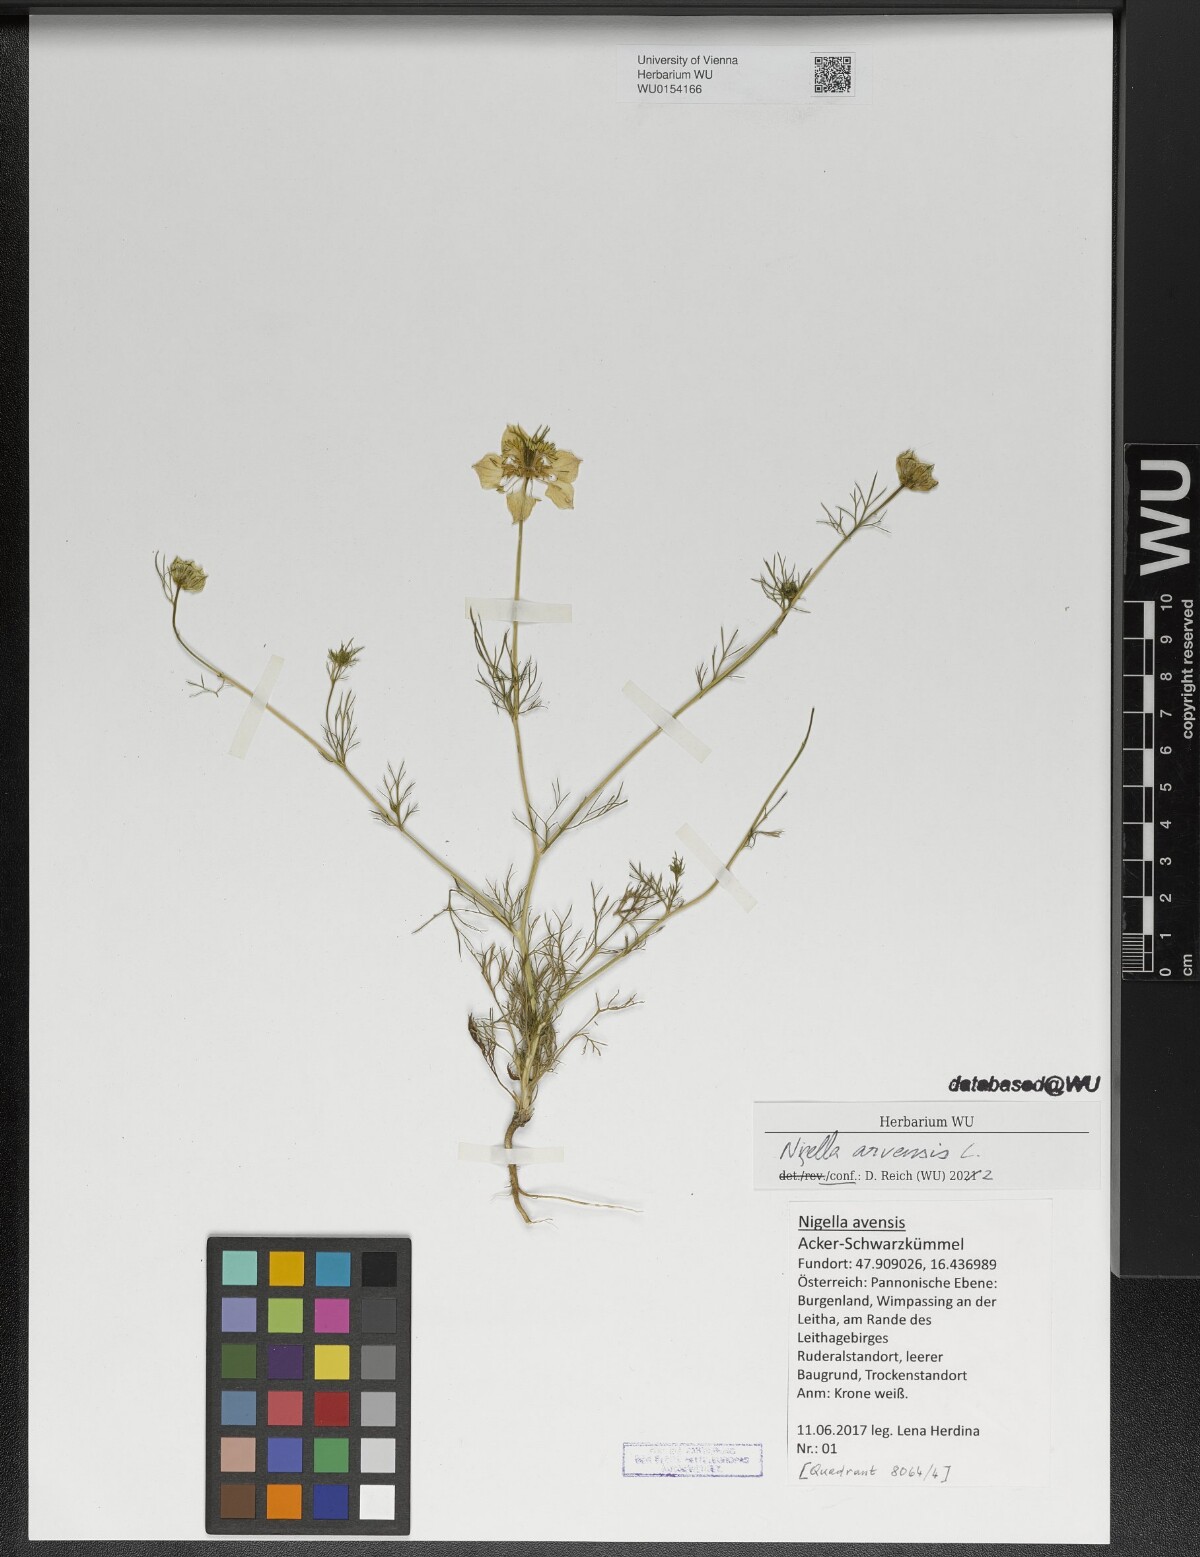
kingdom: Plantae
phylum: Tracheophyta
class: Magnoliopsida
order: Ranunculales
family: Ranunculaceae
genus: Nigella
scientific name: Nigella arvensis
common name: Wild fennel-flower
